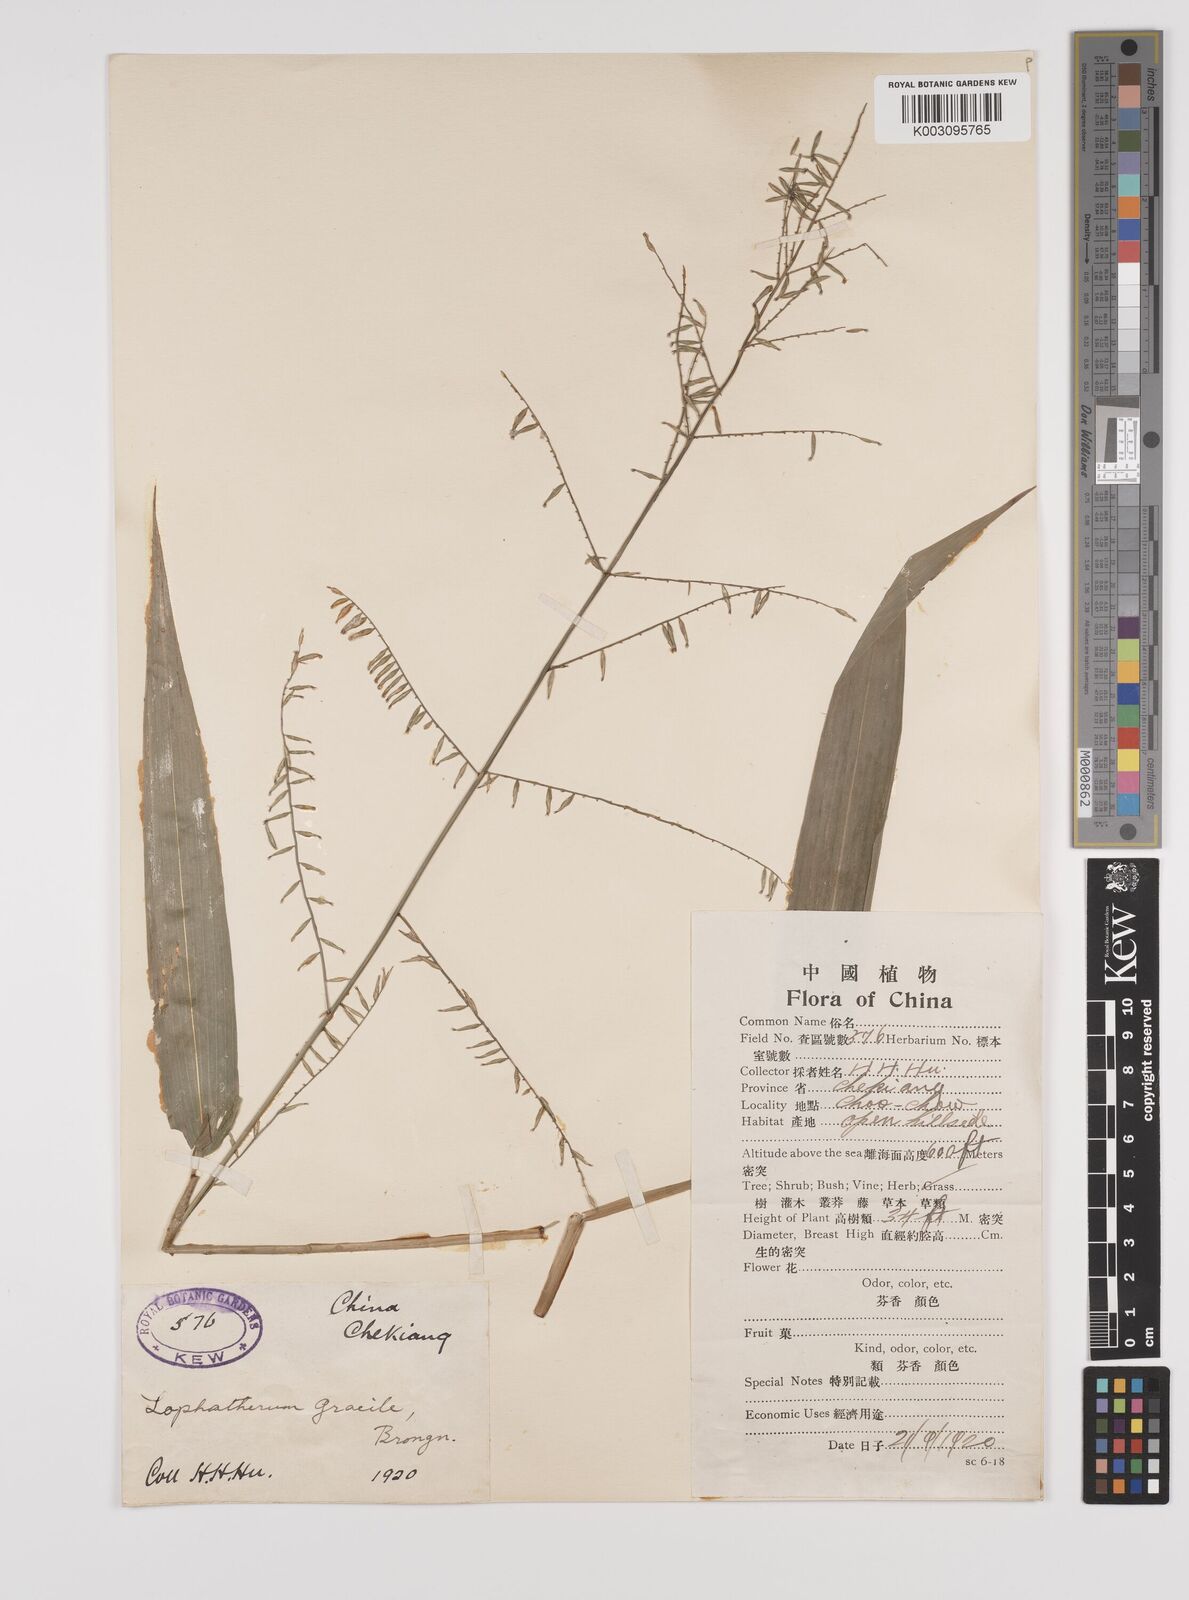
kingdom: Plantae
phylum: Tracheophyta
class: Liliopsida
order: Poales
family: Poaceae
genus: Lophatherum
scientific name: Lophatherum gracile
